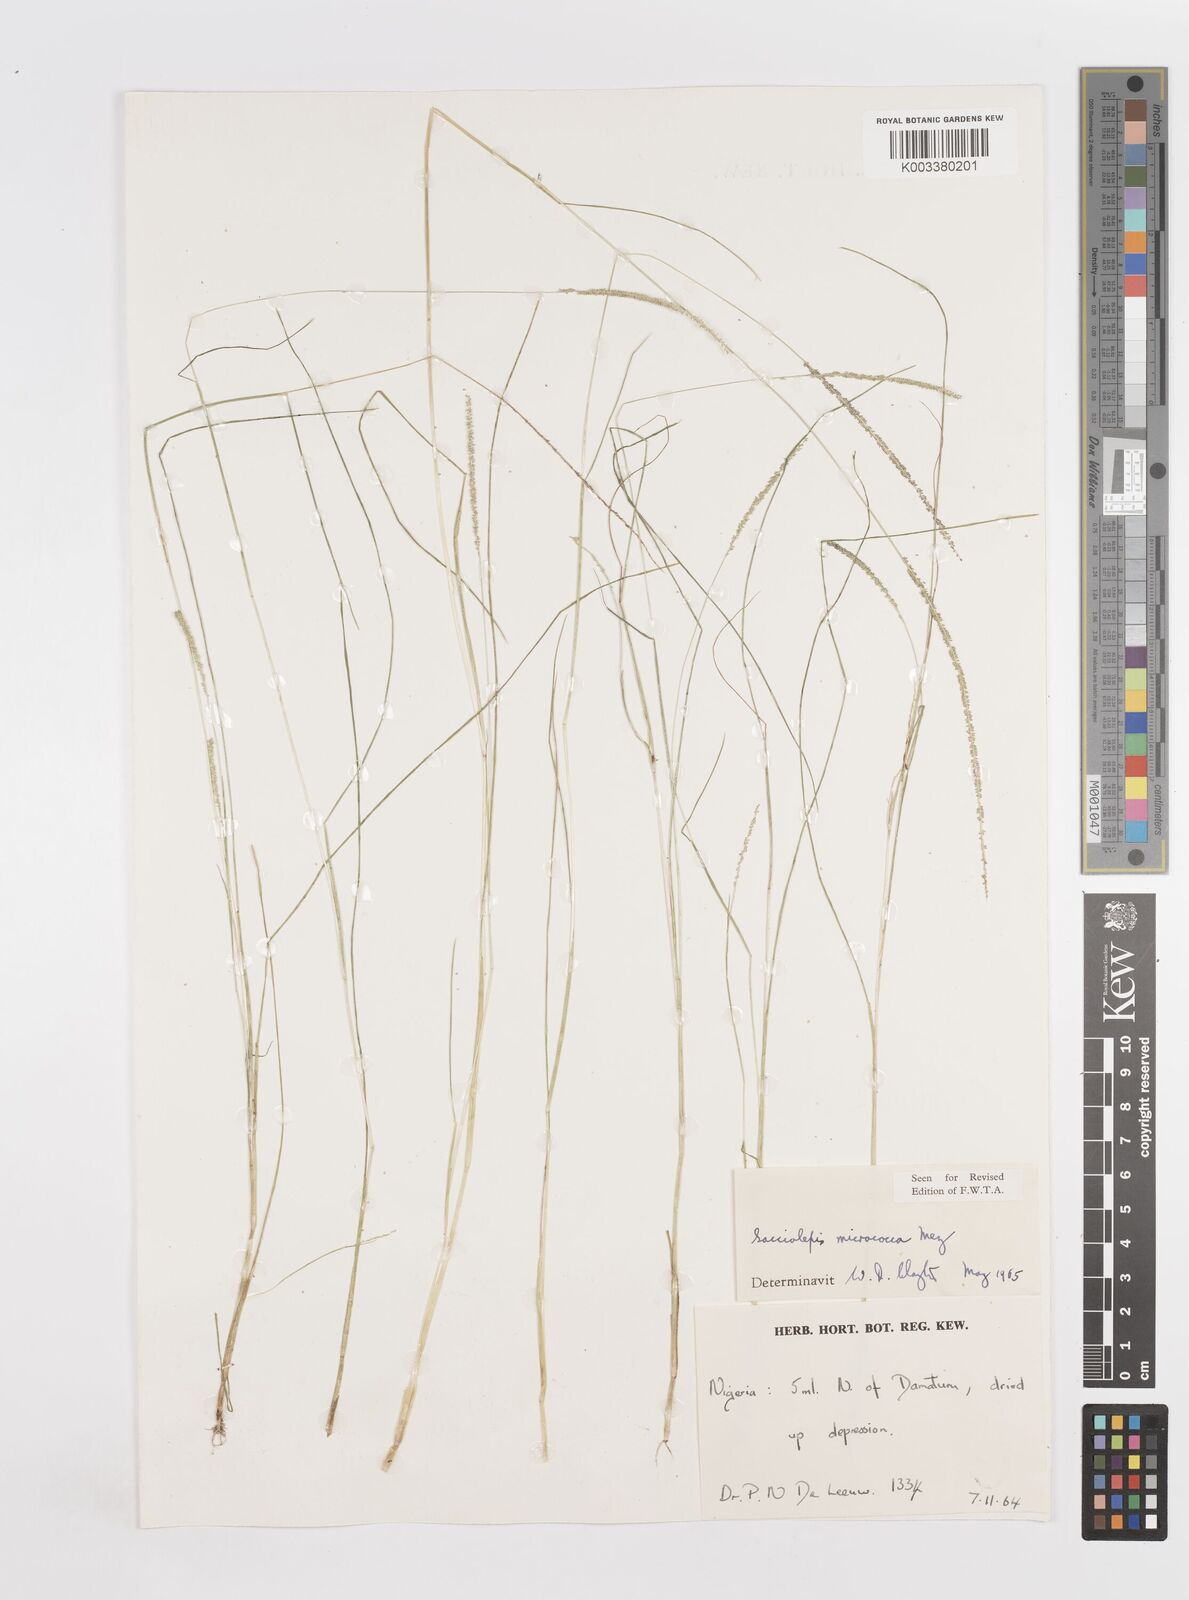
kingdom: Plantae
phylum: Tracheophyta
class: Liliopsida
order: Poales
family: Poaceae
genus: Sacciolepis
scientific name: Sacciolepis micrococca
